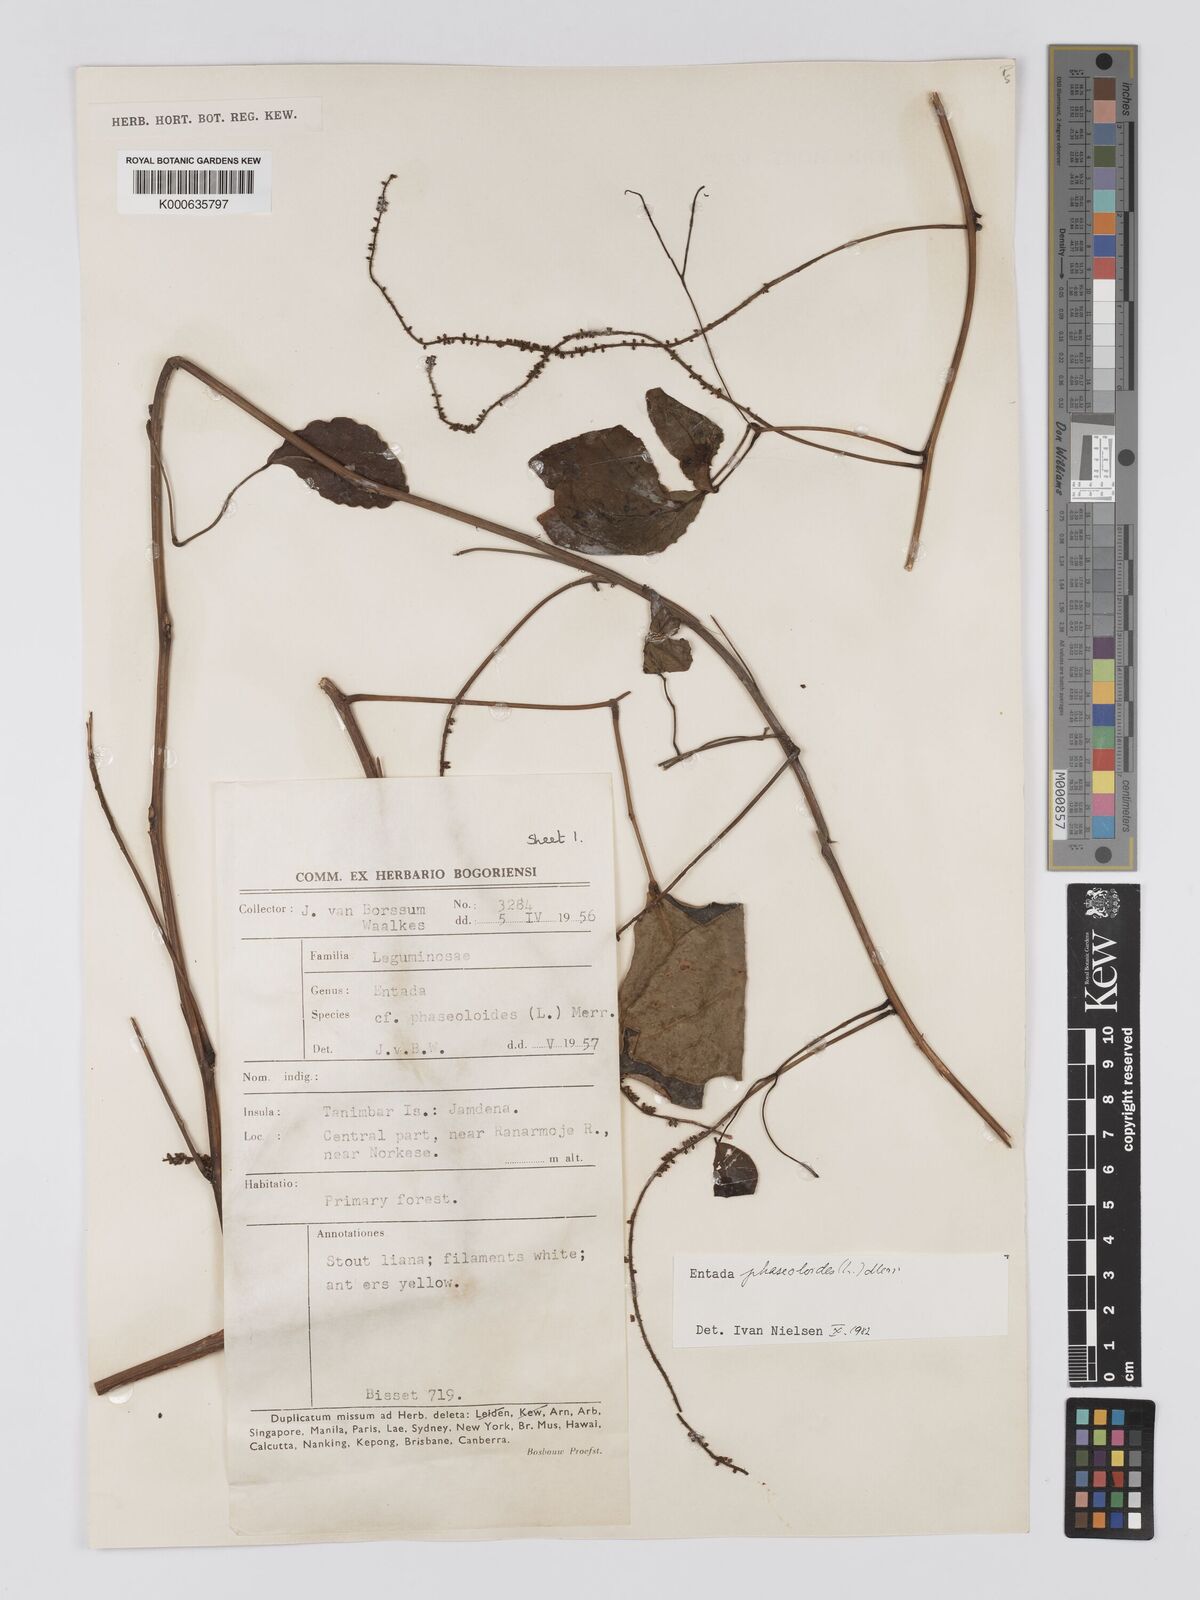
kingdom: Plantae
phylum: Tracheophyta
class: Magnoliopsida
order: Fabales
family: Fabaceae
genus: Entada
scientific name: Entada phaseoloides
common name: Matchbox-bean
